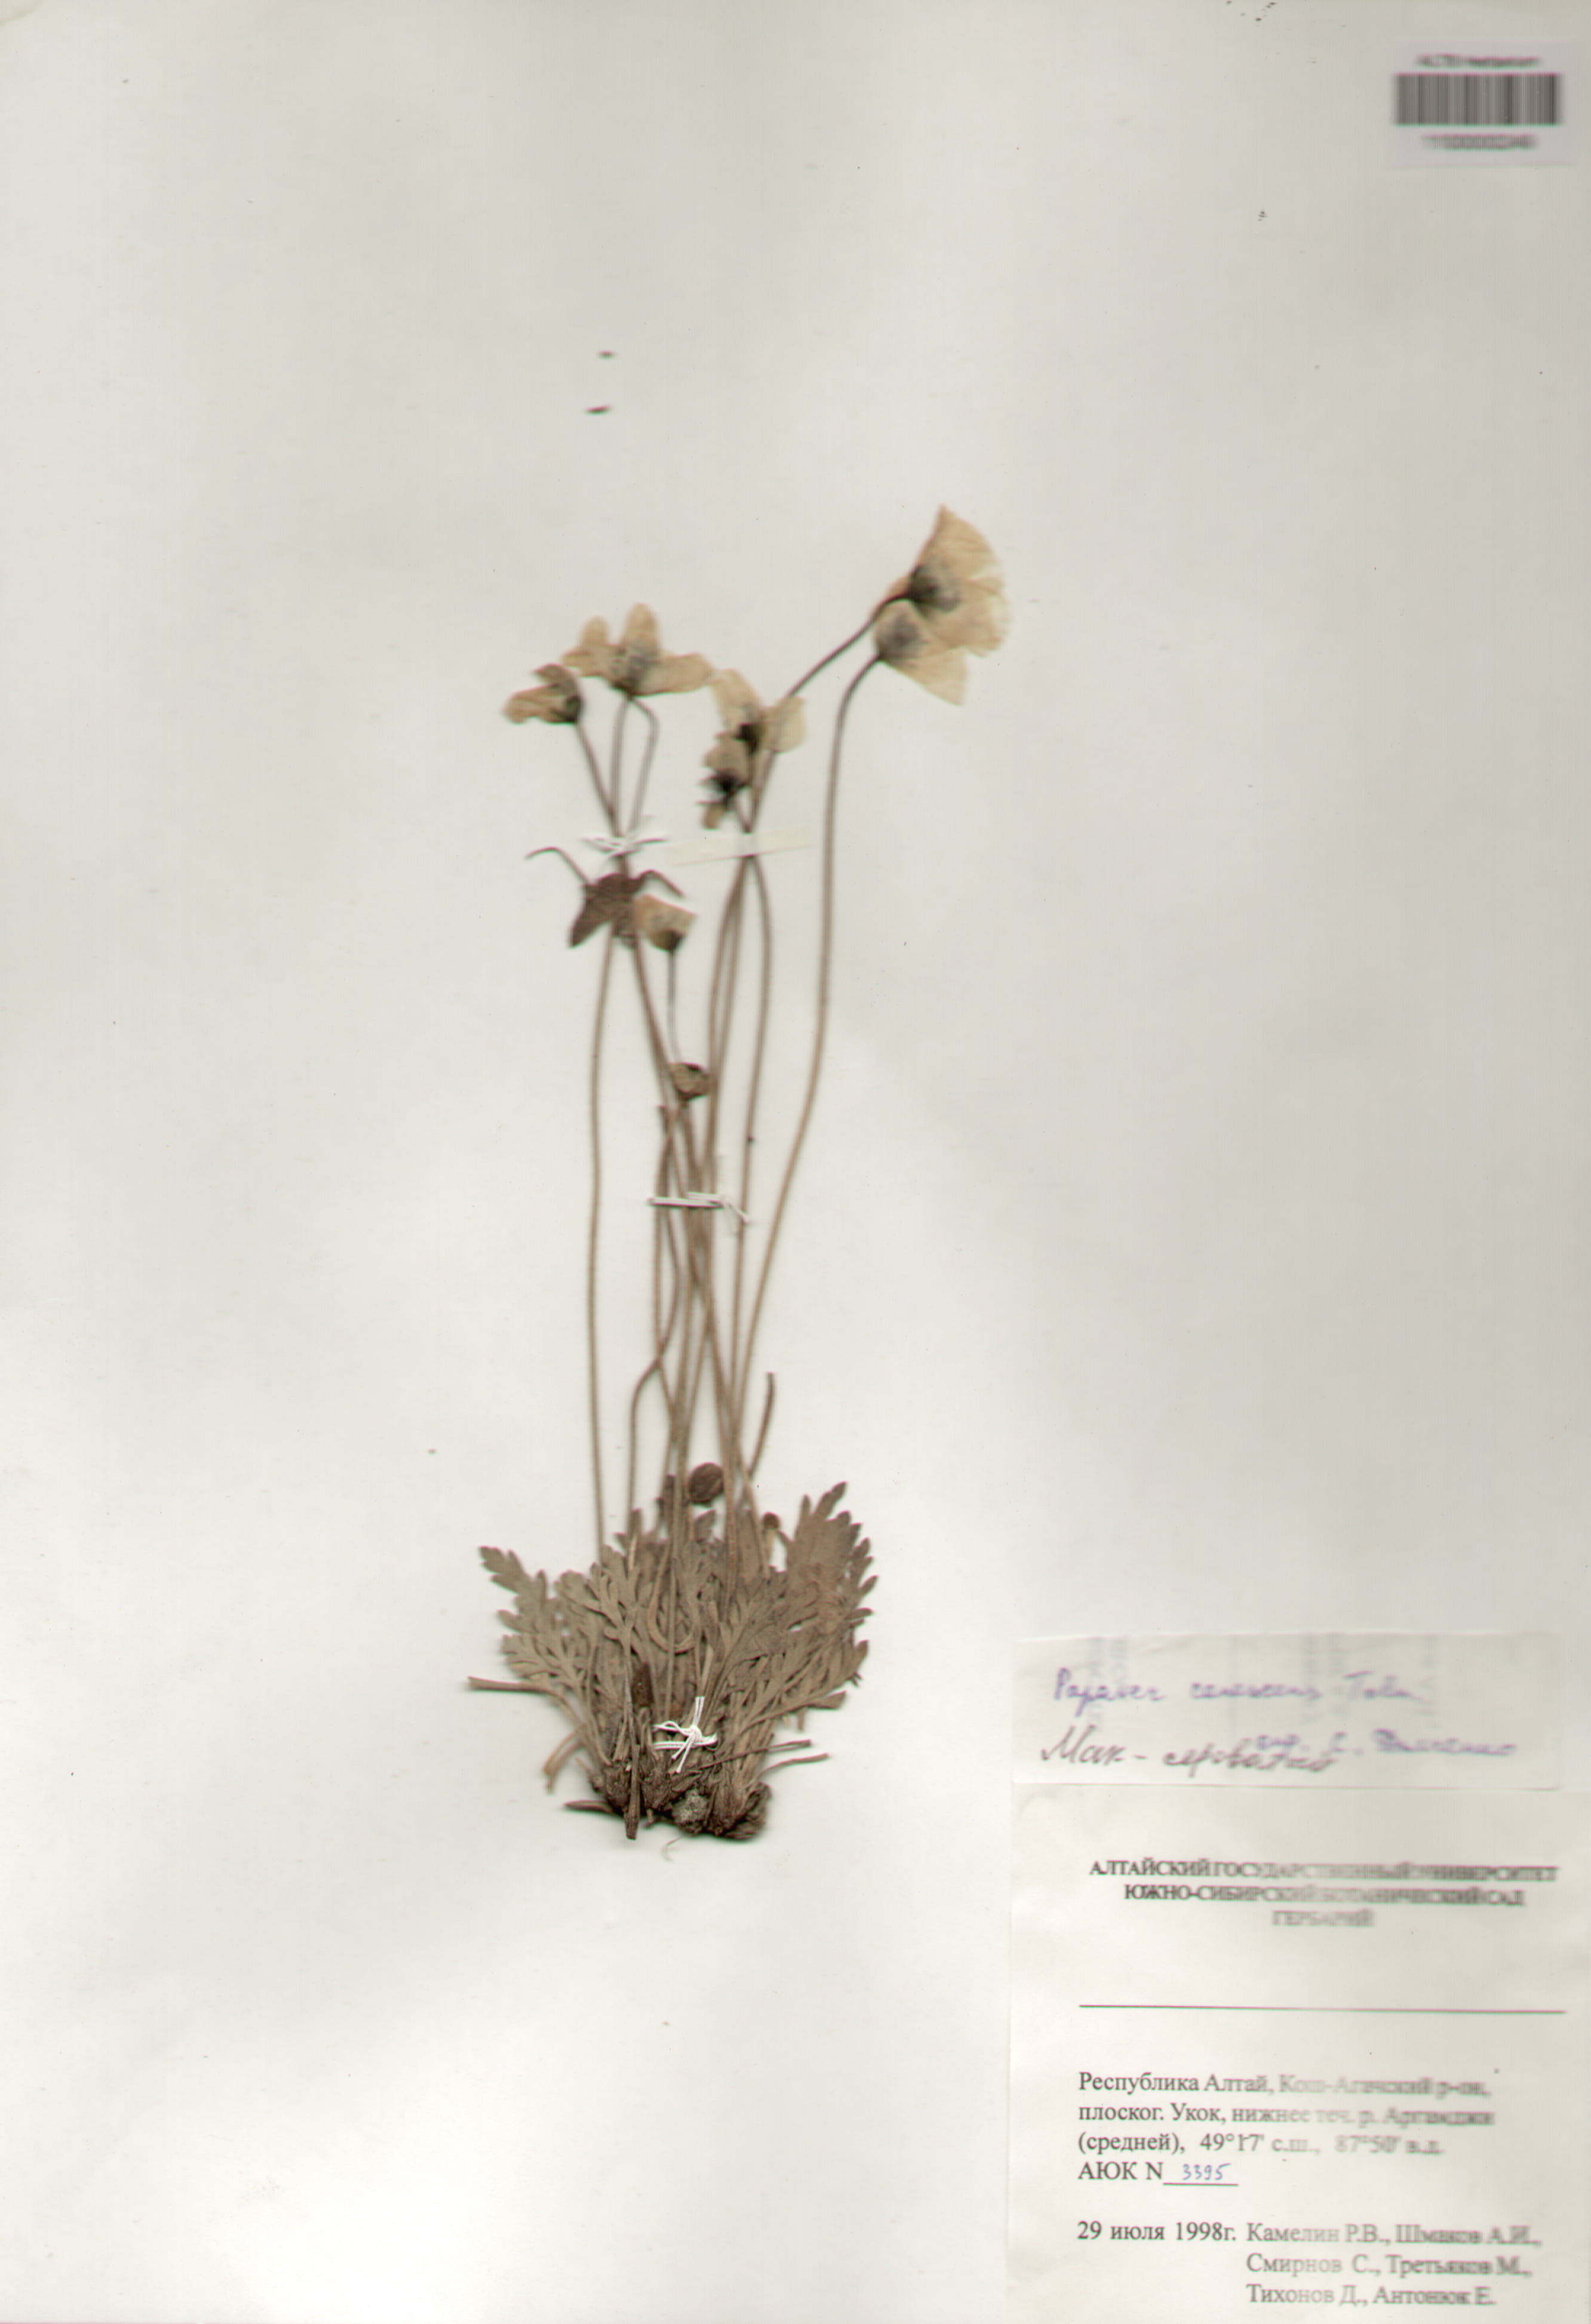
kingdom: Plantae
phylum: Tracheophyta
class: Magnoliopsida
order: Ranunculales
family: Papaveraceae
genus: Papaver
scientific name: Papaver canescens
